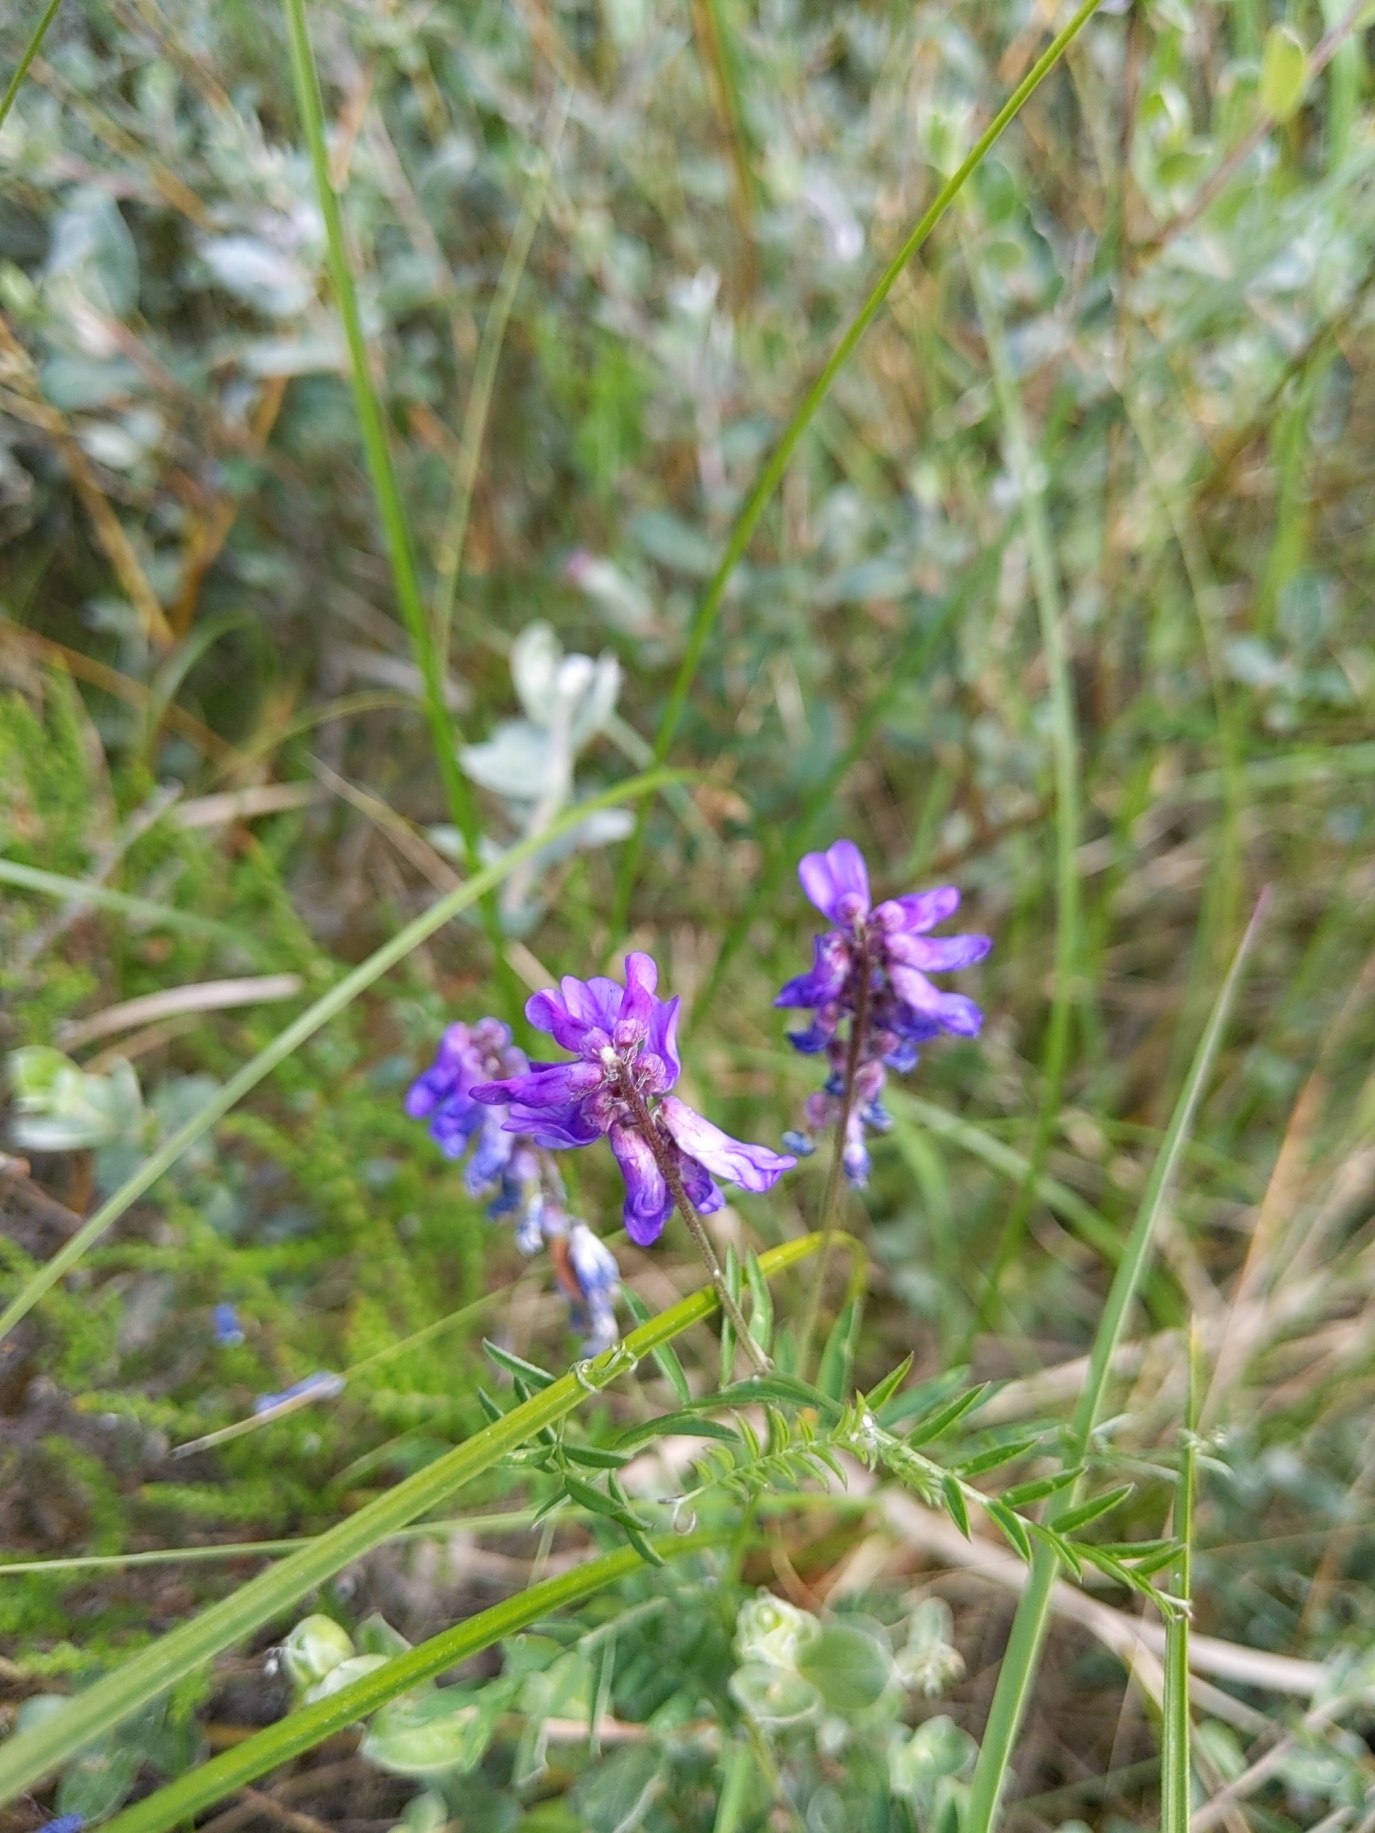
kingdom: Plantae
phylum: Tracheophyta
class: Magnoliopsida
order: Fabales
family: Fabaceae
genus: Vicia
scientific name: Vicia cracca
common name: Muse-vikke
